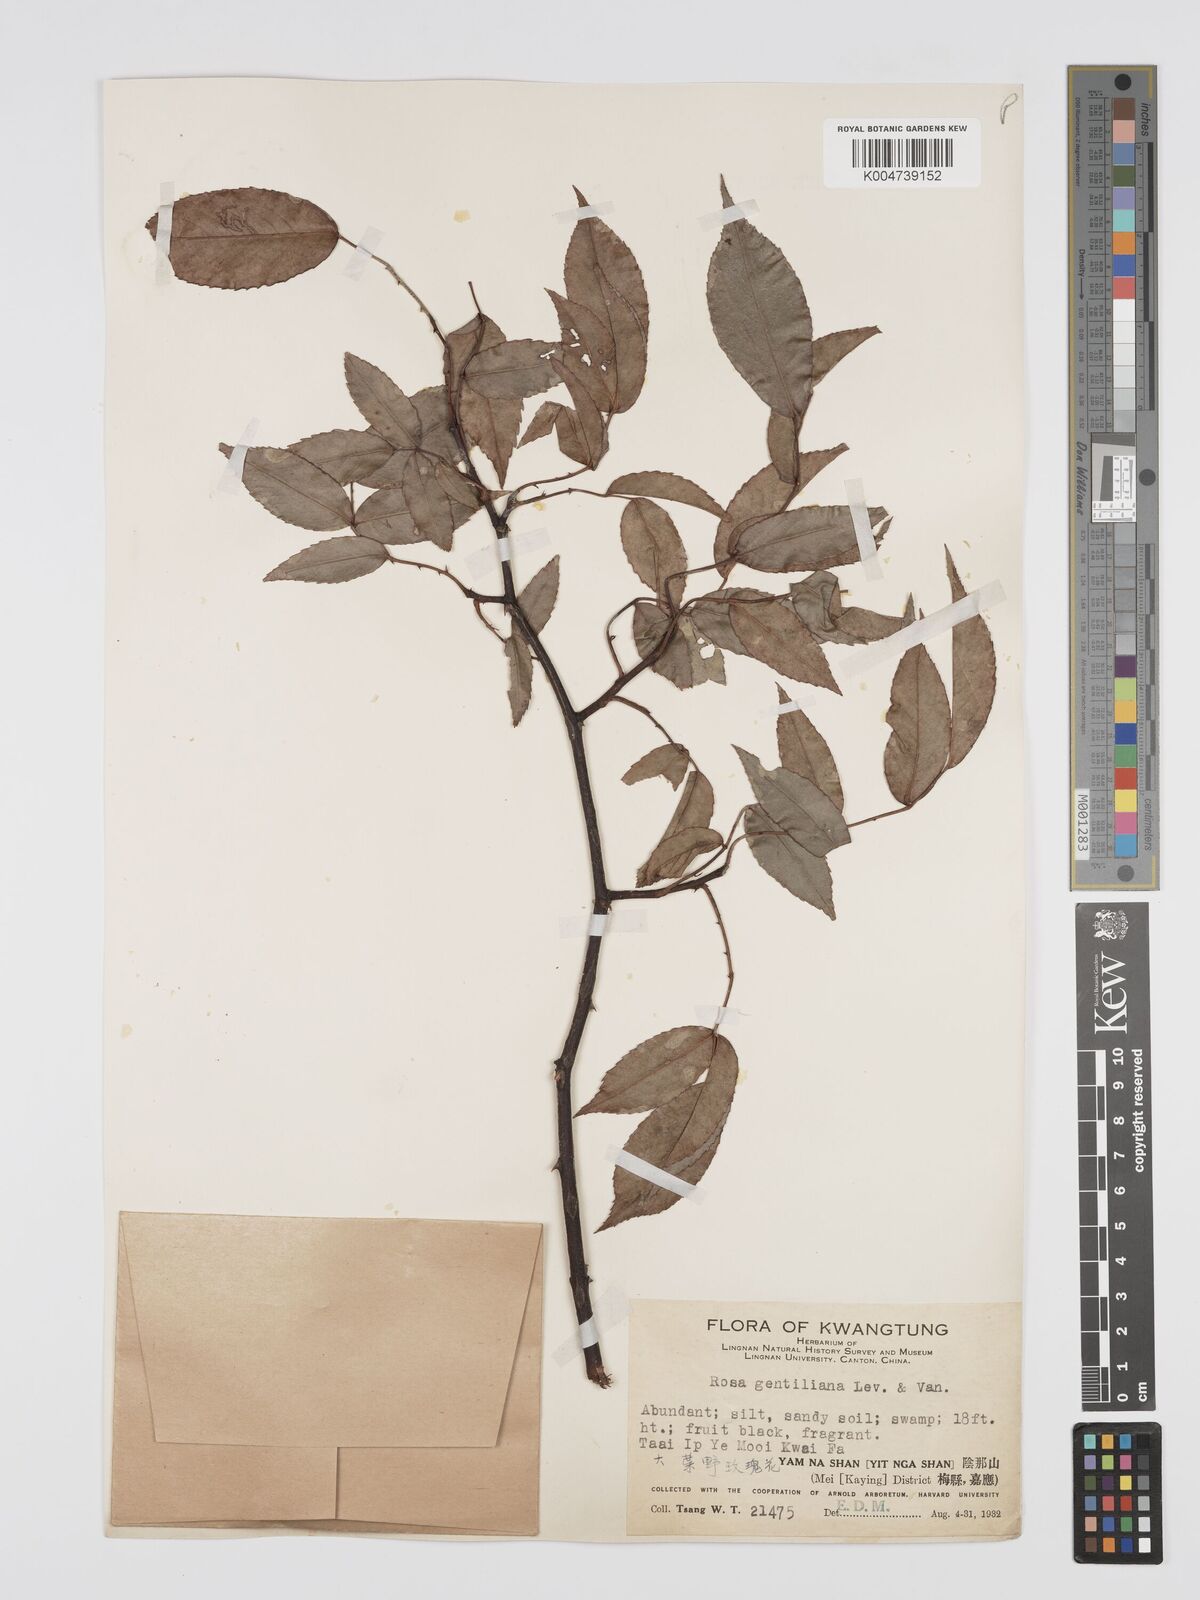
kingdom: Plantae
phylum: Tracheophyta
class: Magnoliopsida
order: Rosales
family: Rosaceae
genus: Rosa
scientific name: Rosa henryi
